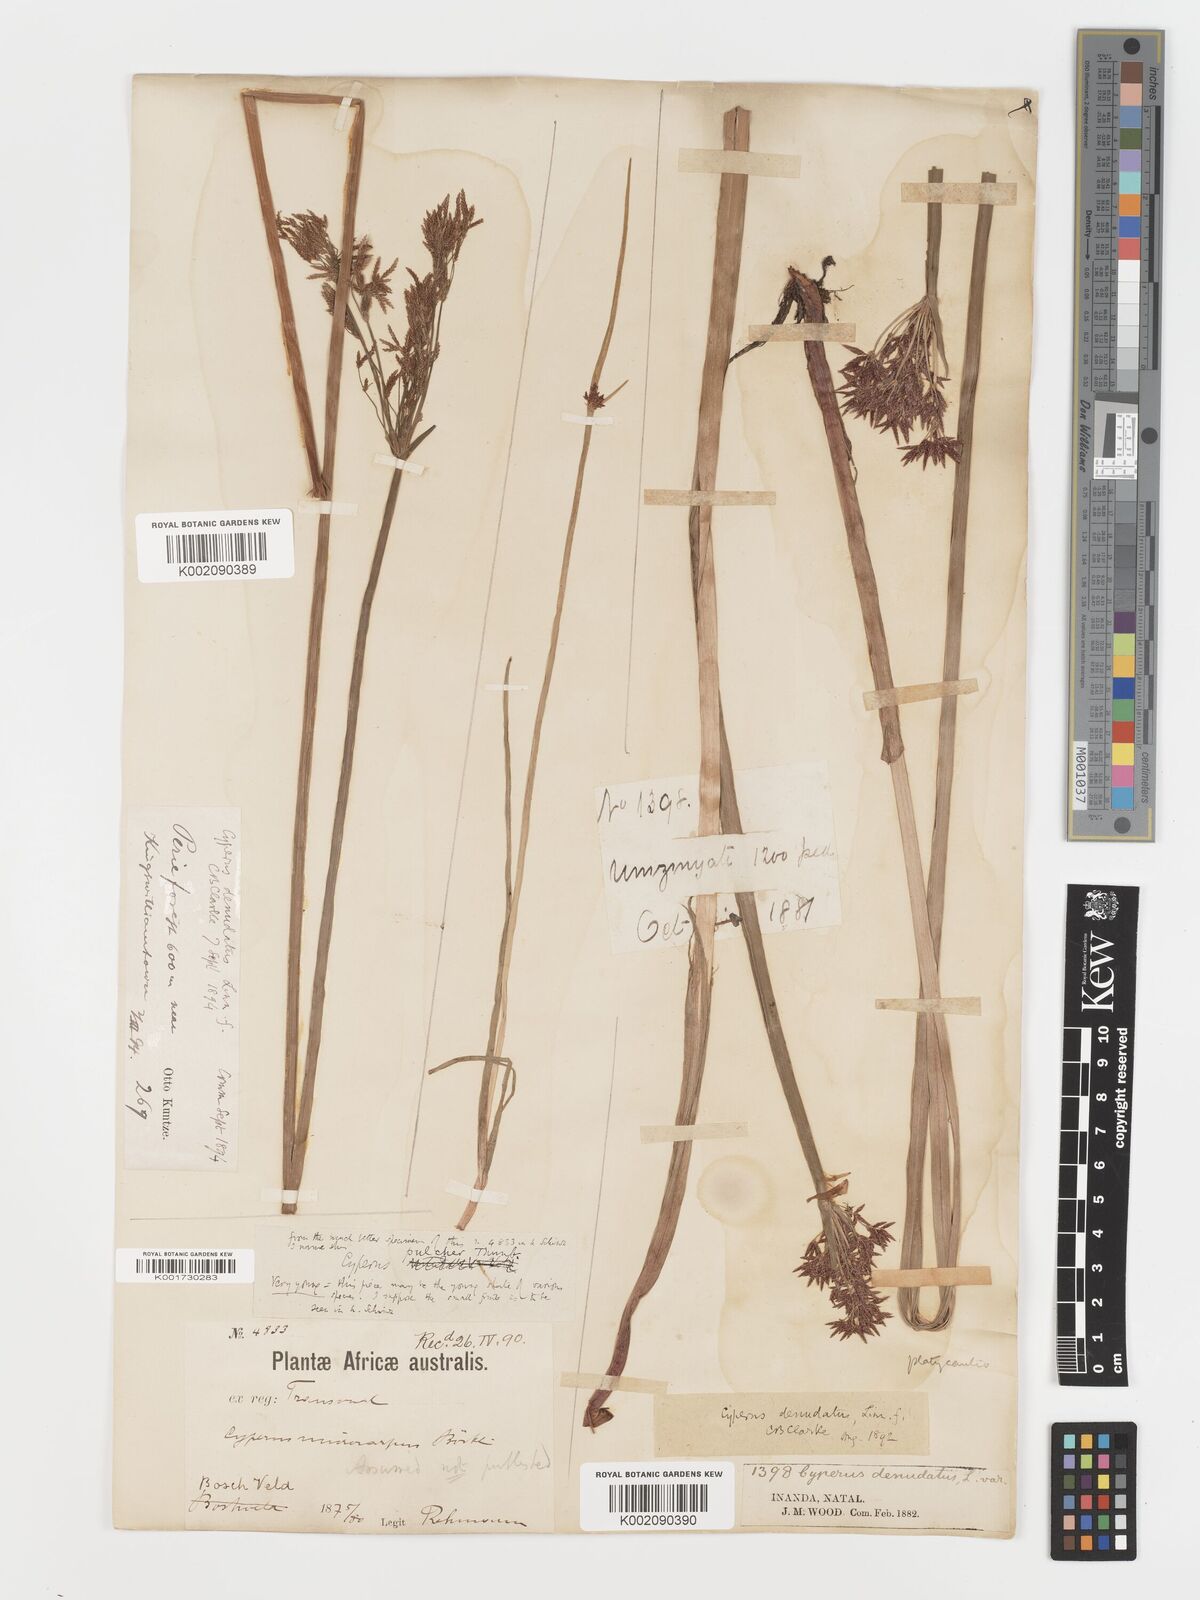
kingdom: Plantae
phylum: Tracheophyta
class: Liliopsida
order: Poales
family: Cyperaceae
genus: Cyperus
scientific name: Cyperus platycaulis
